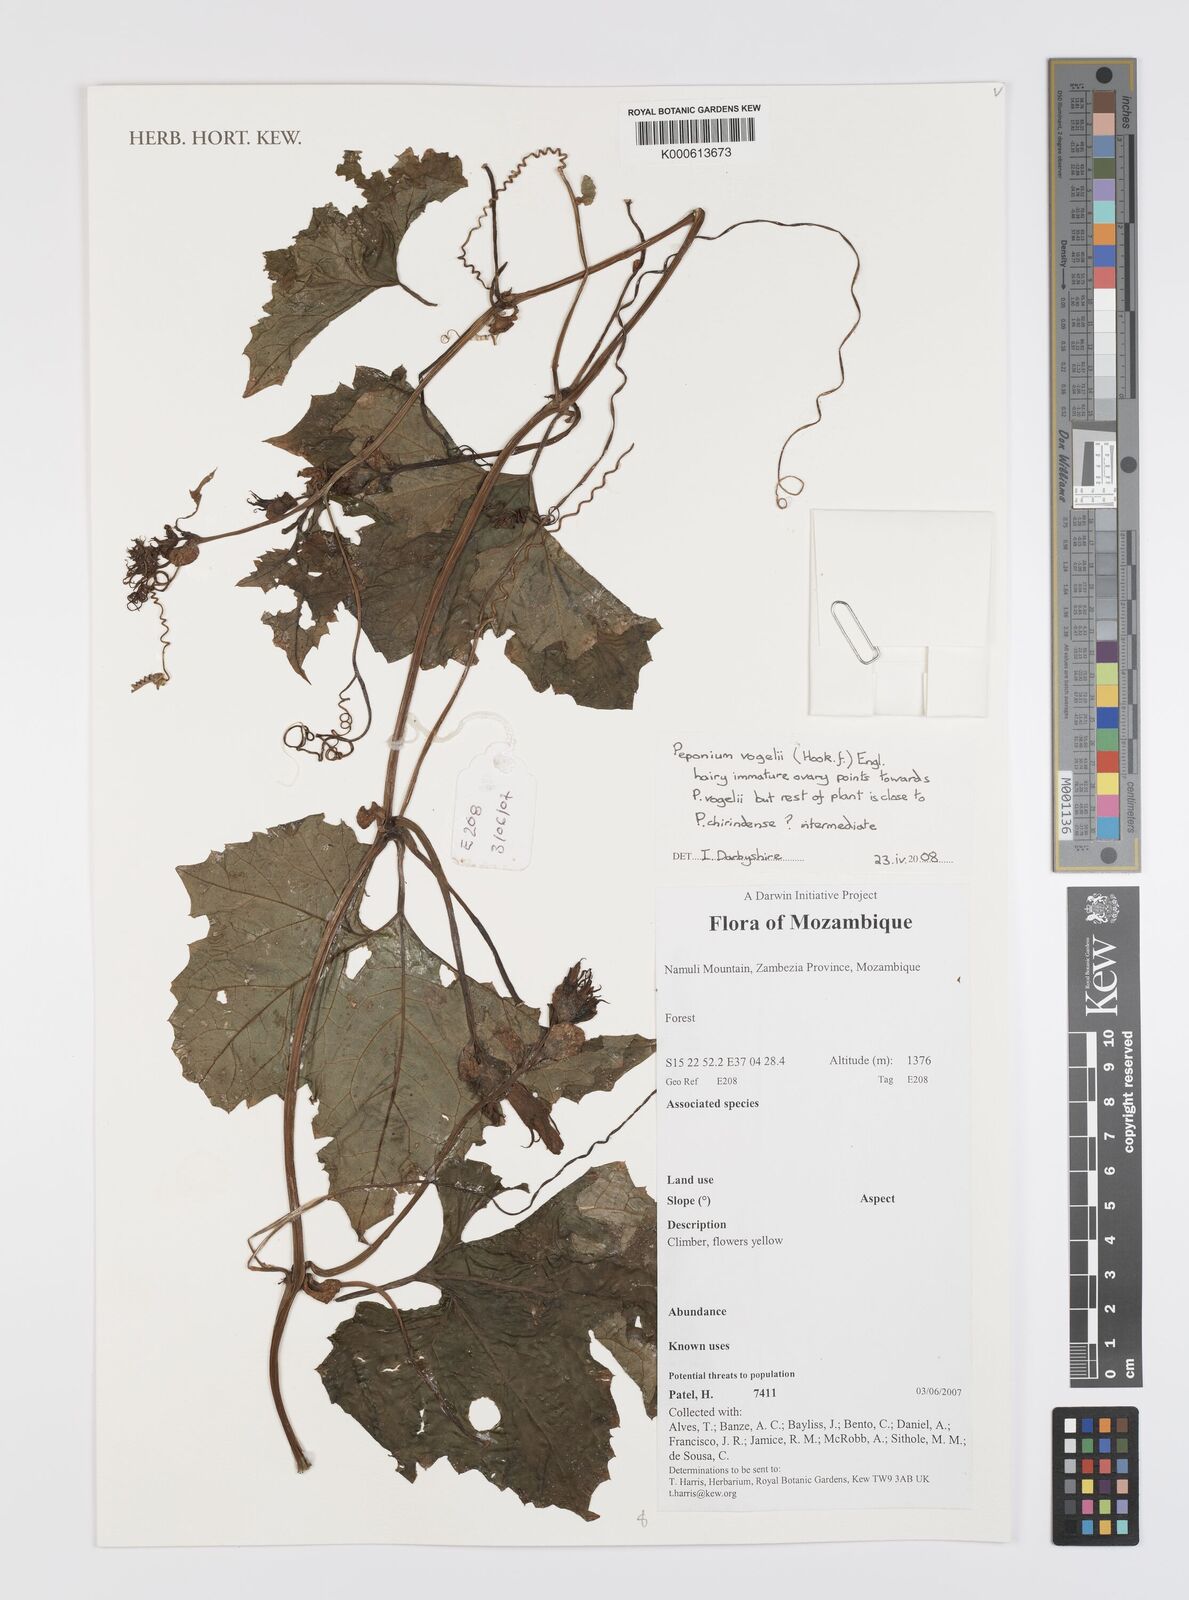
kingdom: Plantae
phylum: Tracheophyta
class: Magnoliopsida
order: Cucurbitales
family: Cucurbitaceae
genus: Peponium
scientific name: Peponium vogelii
